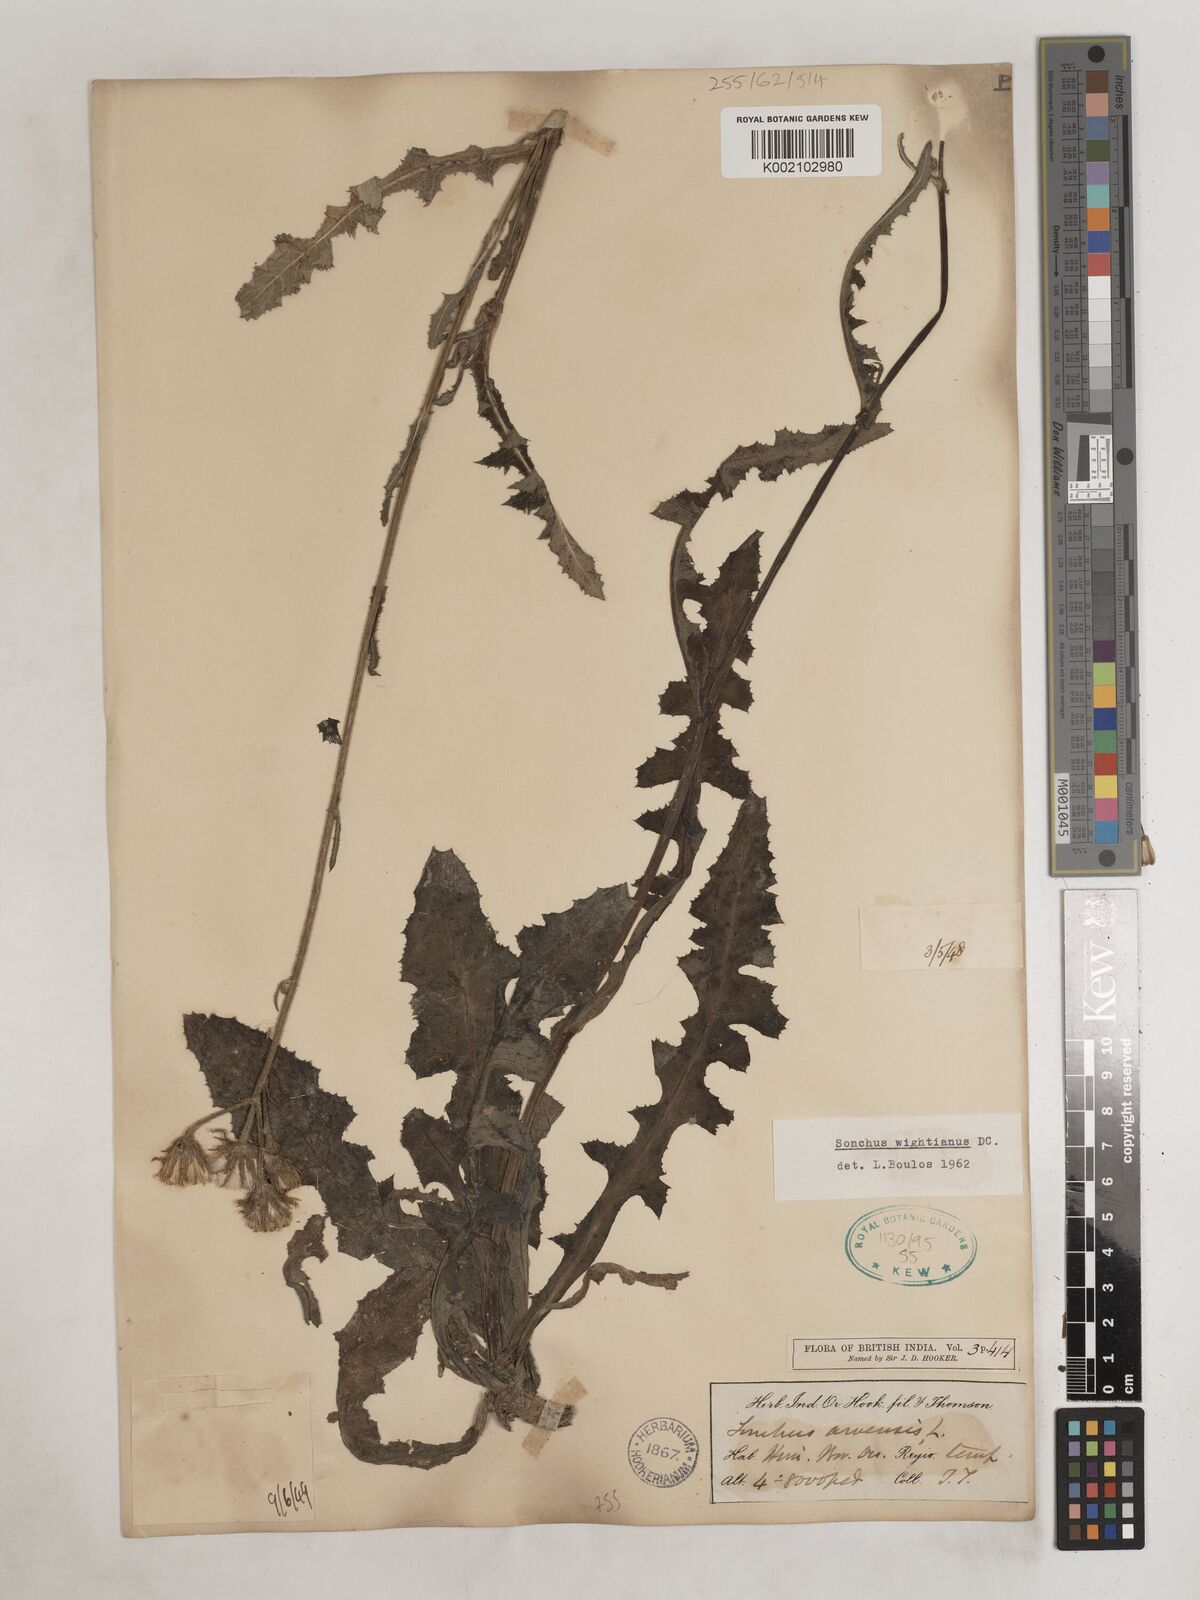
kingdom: Plantae
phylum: Tracheophyta
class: Magnoliopsida
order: Asterales
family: Asteraceae
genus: Sonchus
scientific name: Sonchus wightianus
